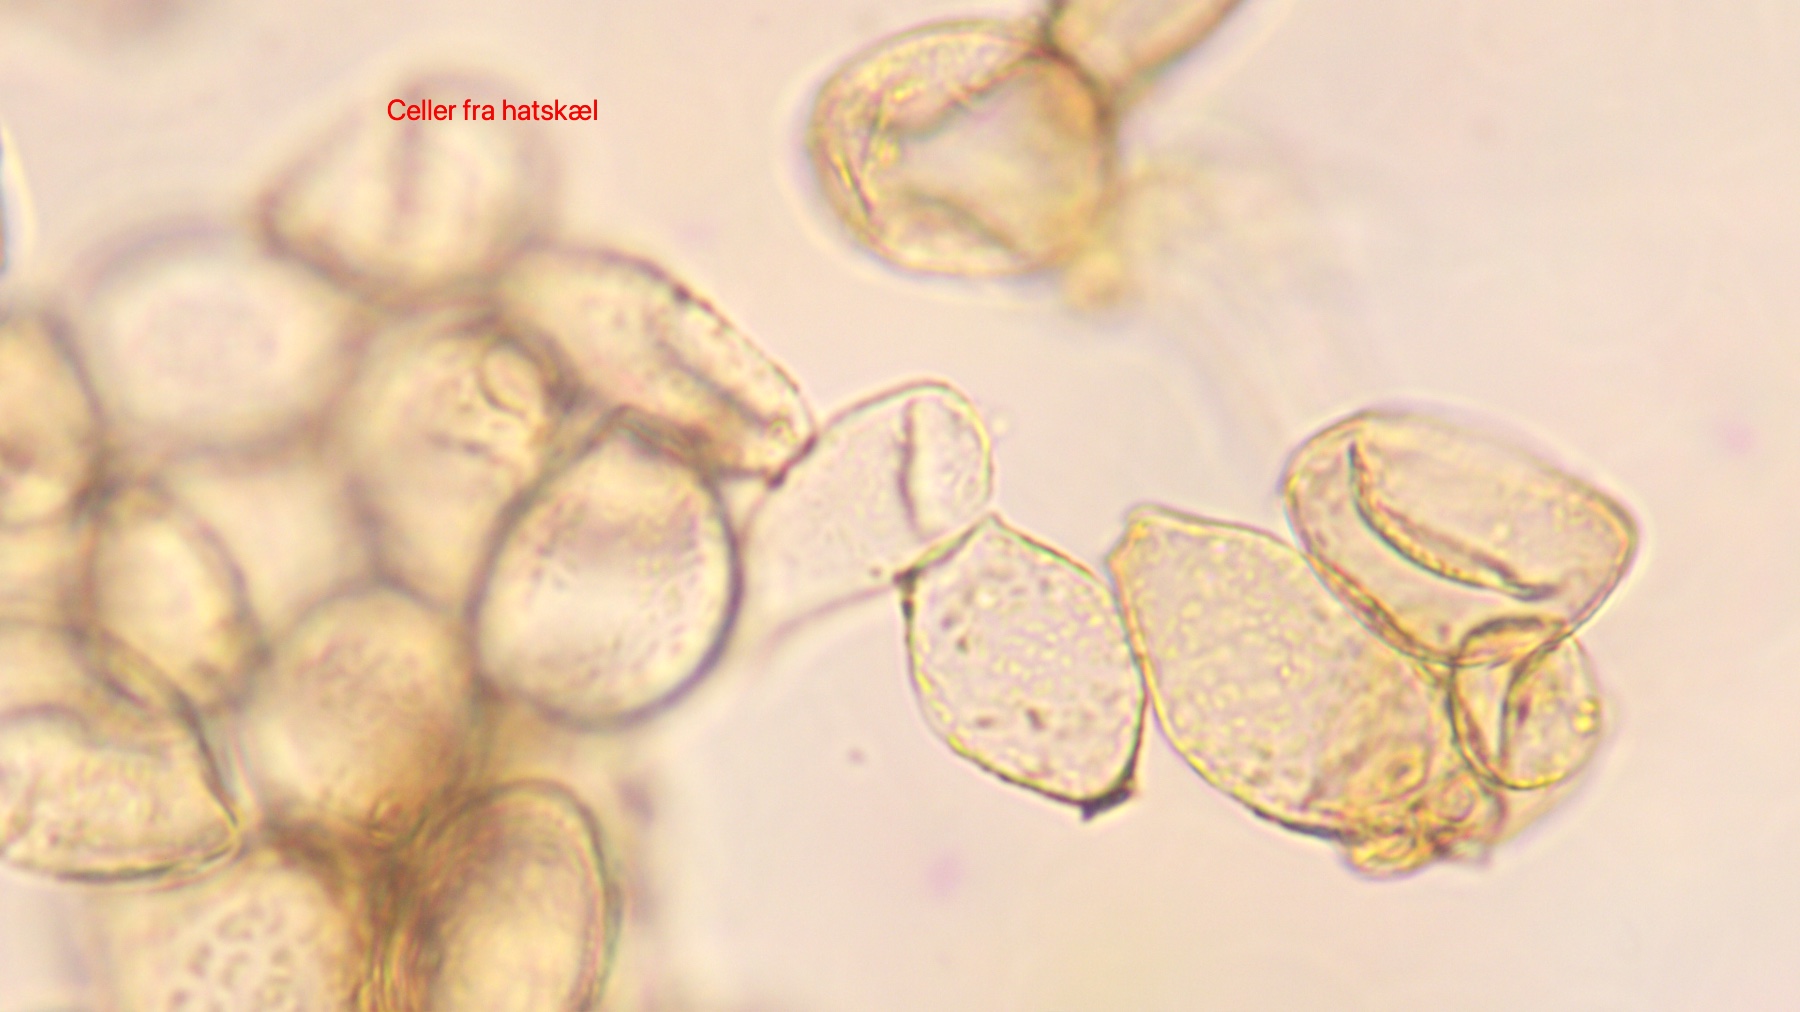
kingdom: Fungi
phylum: Basidiomycota
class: Agaricomycetes
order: Agaricales
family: Tubariaceae
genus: Flammulaster
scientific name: Flammulaster muricatus
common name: pigget grynskælhat
